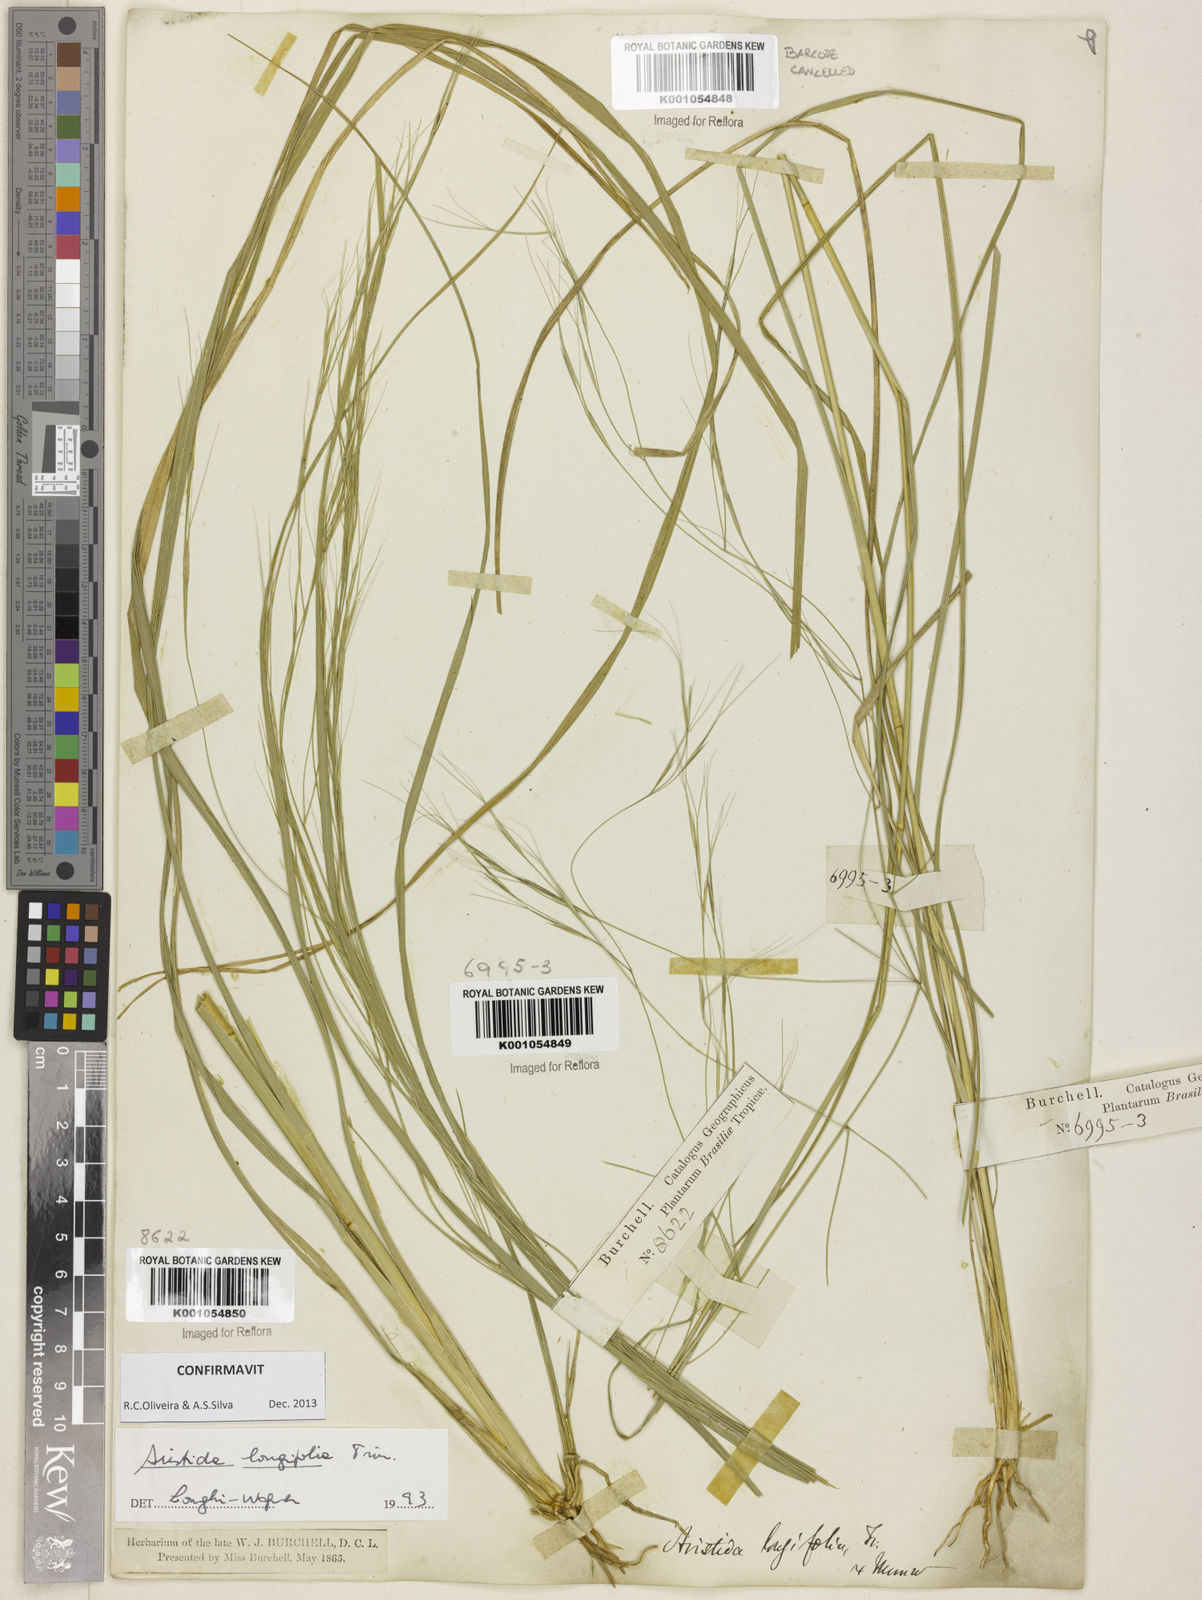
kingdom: Plantae
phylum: Tracheophyta
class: Liliopsida
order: Poales
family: Poaceae
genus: Aristida
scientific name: Aristida longifolia
